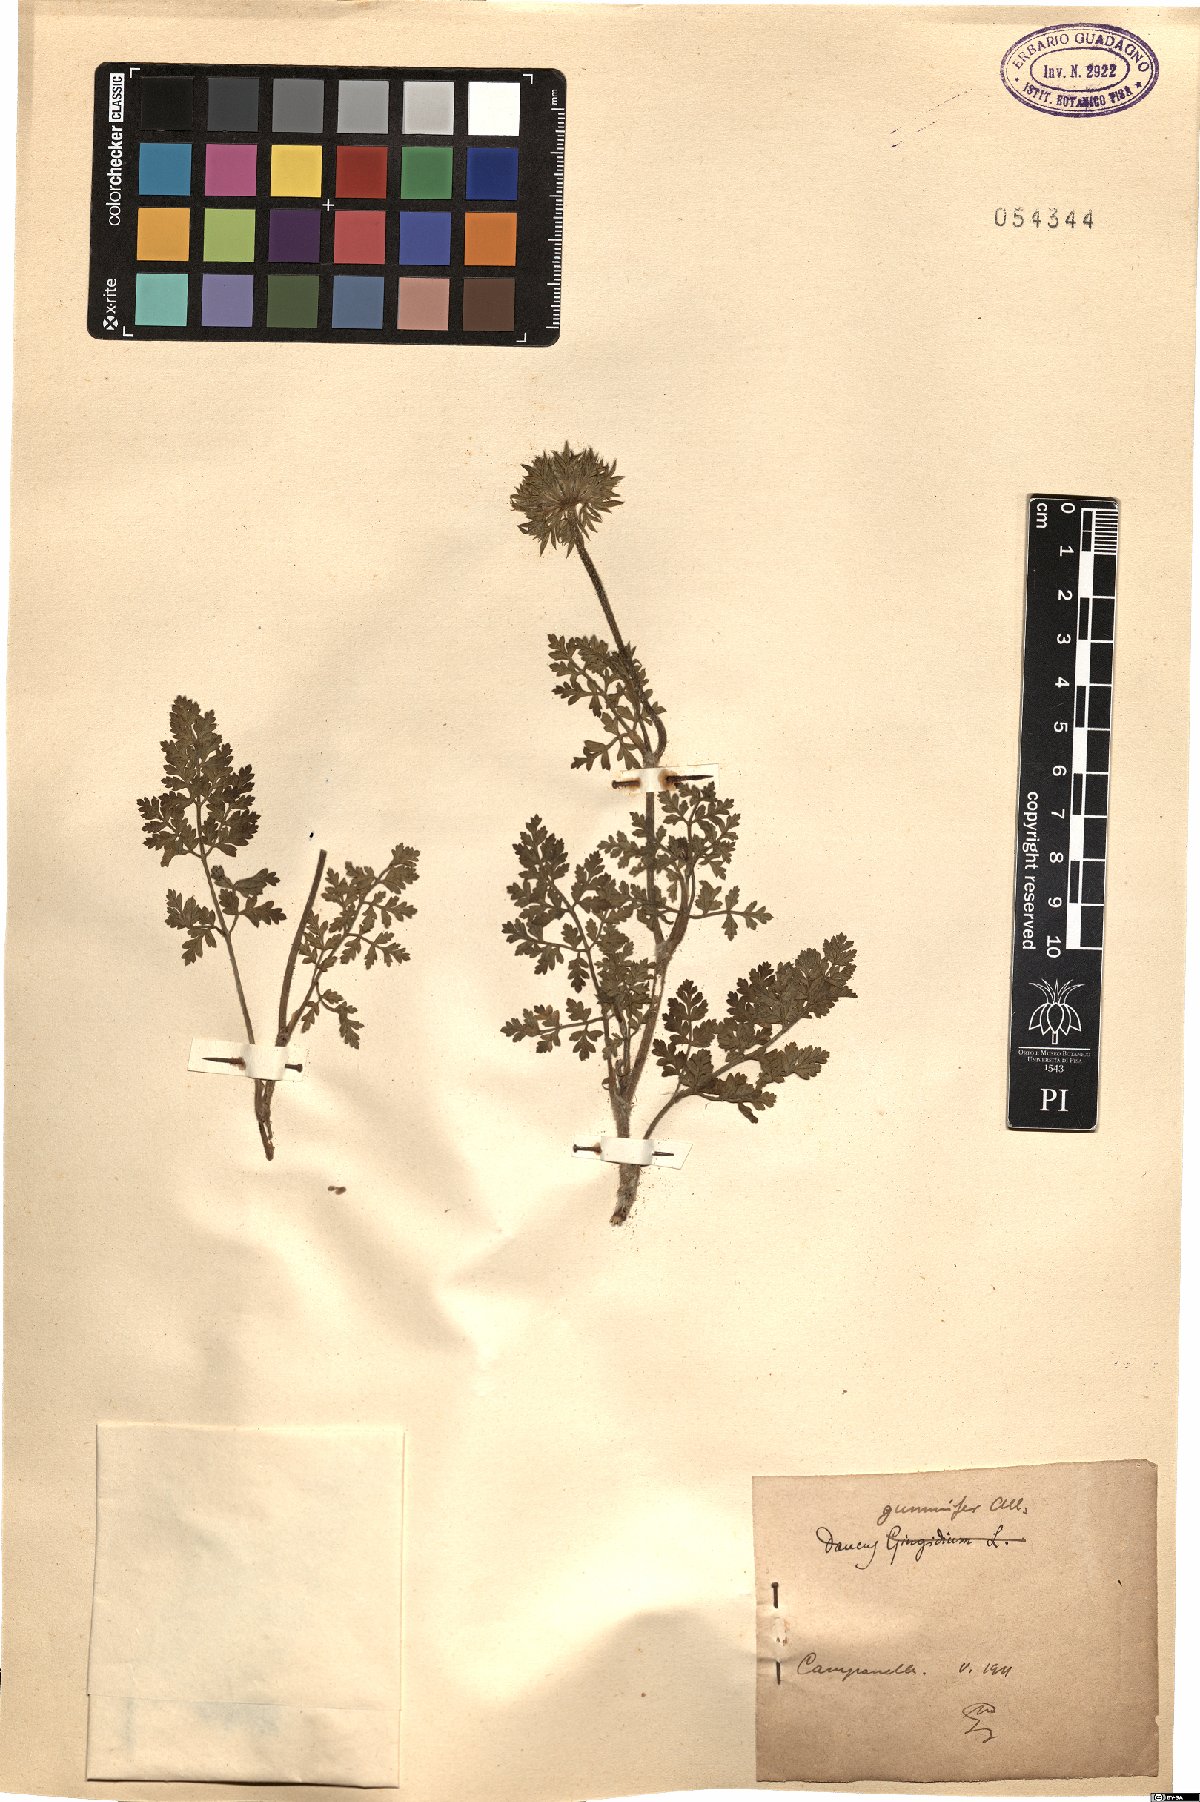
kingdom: Plantae
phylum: Tracheophyta
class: Magnoliopsida
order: Apiales
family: Apiaceae
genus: Daucus
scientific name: Daucus carota
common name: Wild carrot
